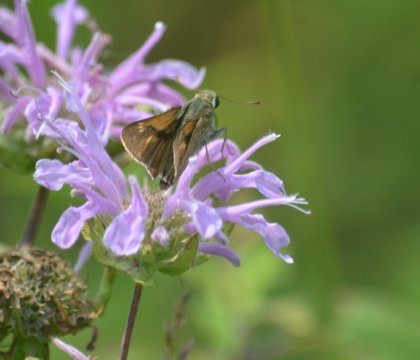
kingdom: Animalia
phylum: Arthropoda
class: Insecta
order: Lepidoptera
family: Hesperiidae
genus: Polites
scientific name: Polites
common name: Crossline Skipper
